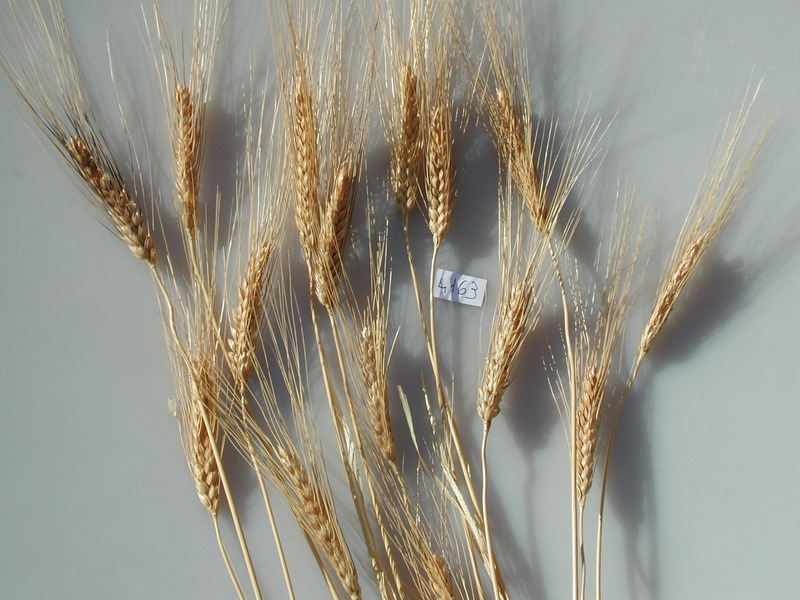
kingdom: Plantae
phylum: Tracheophyta
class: Liliopsida
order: Poales
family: Poaceae
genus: Triticum
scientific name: Triticum turgidum
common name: Wheat
